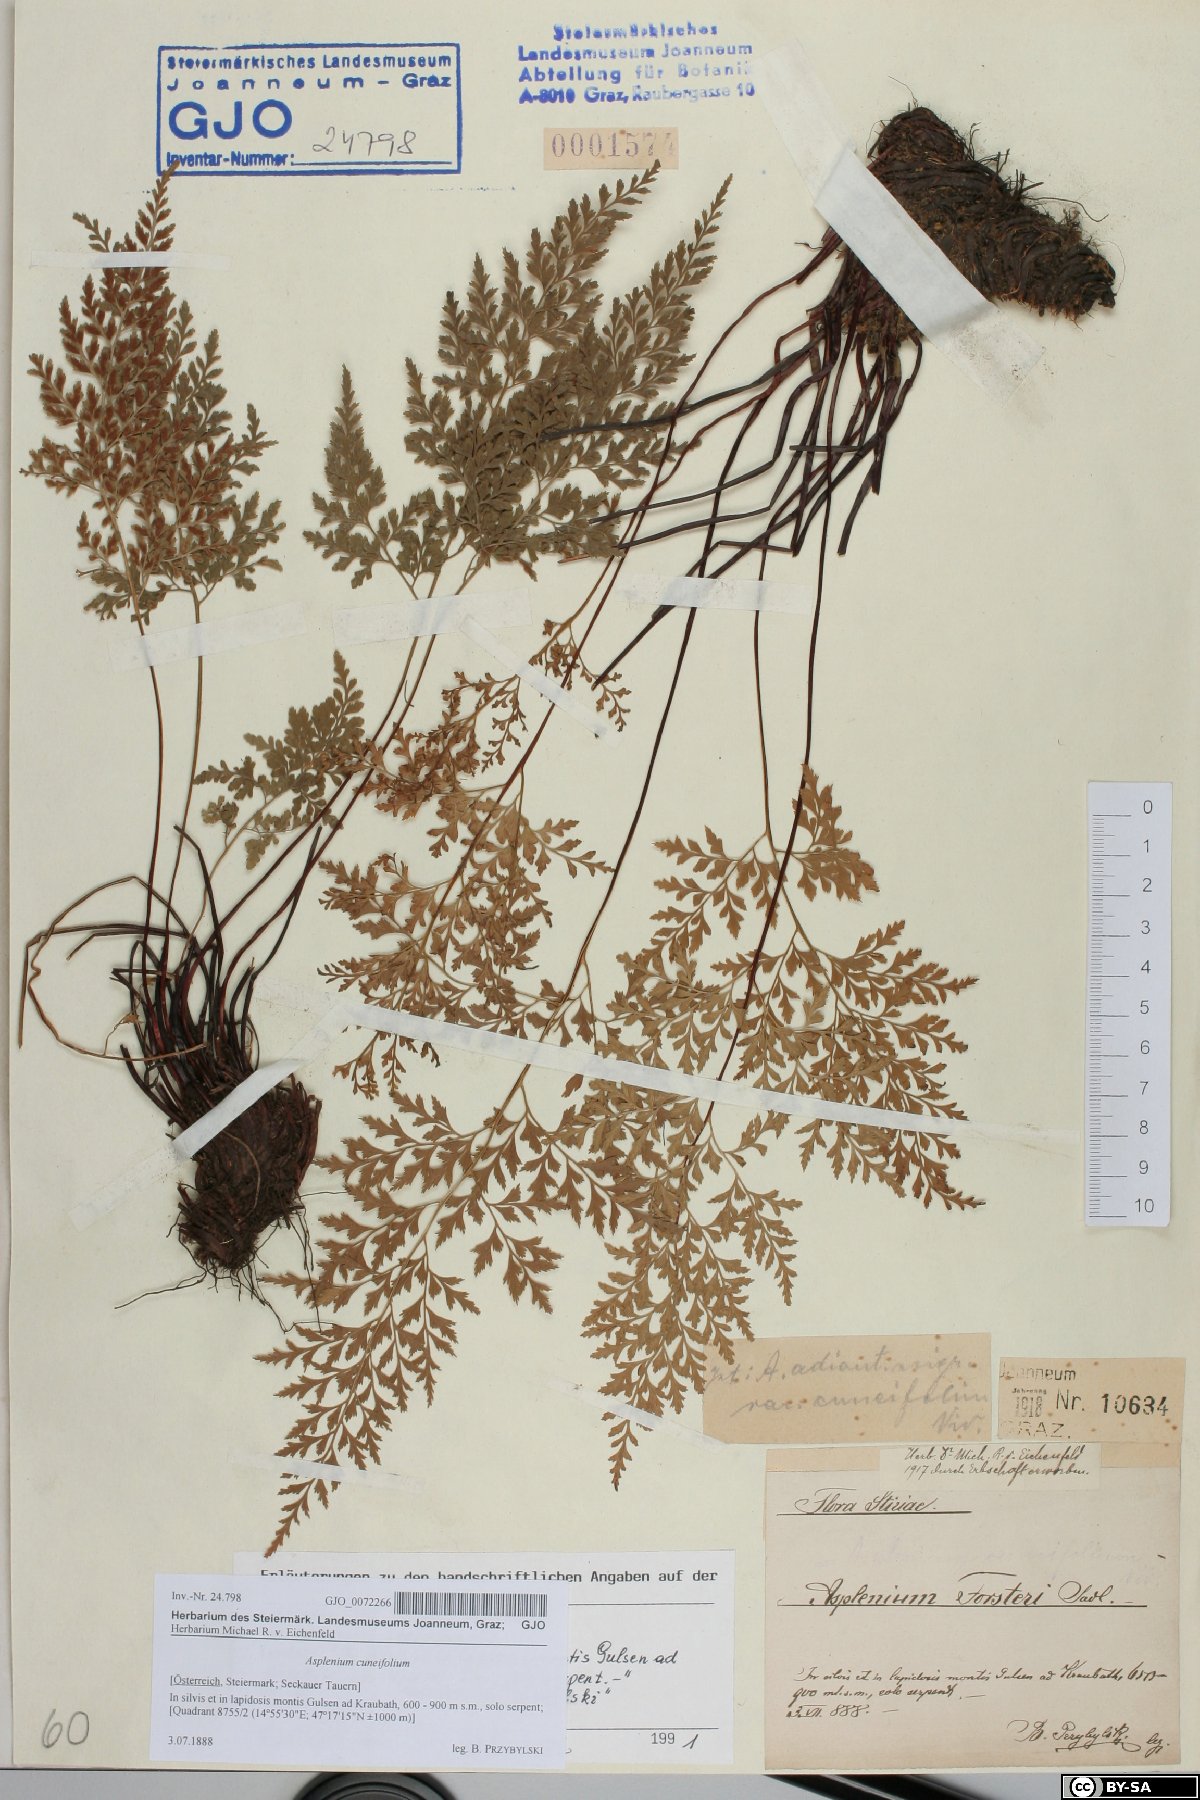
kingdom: Plantae
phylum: Tracheophyta
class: Polypodiopsida
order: Polypodiales
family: Aspleniaceae
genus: Asplenium
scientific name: Asplenium cuneifolium
